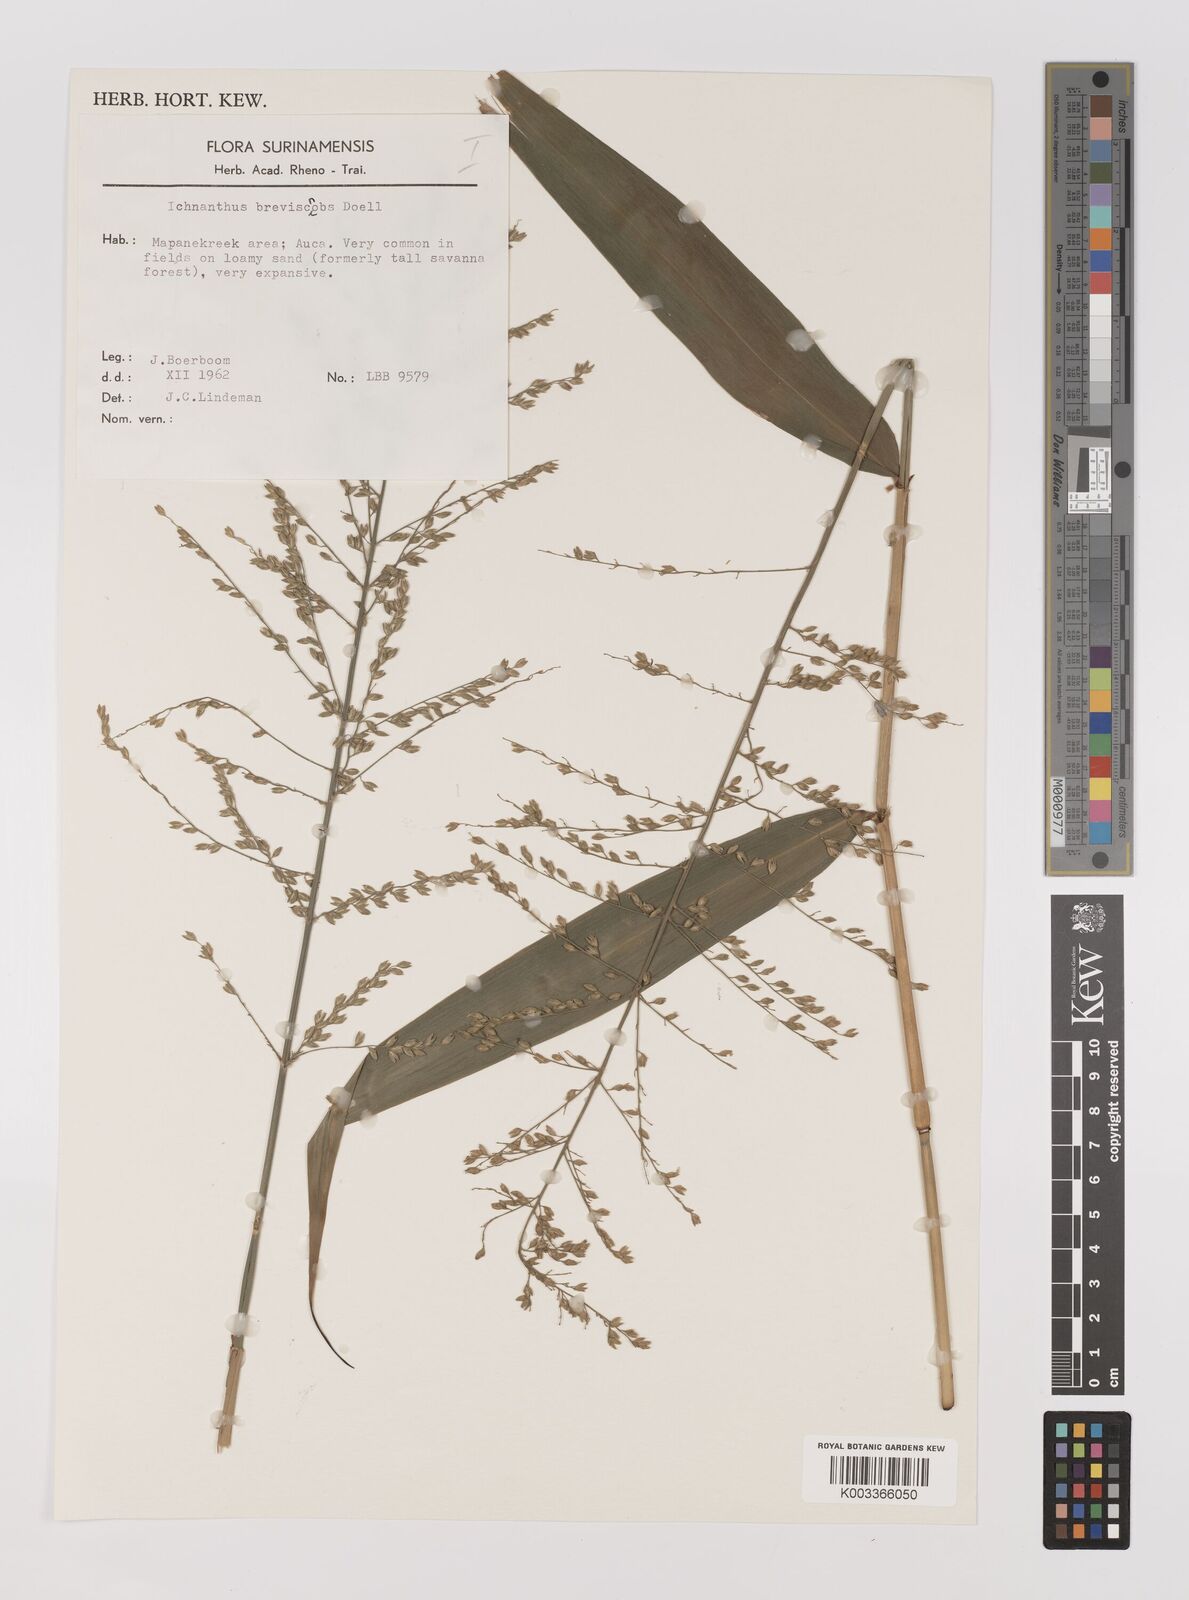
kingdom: Plantae
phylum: Tracheophyta
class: Liliopsida
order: Poales
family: Poaceae
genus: Ichnanthus
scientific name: Ichnanthus breviscrobs
